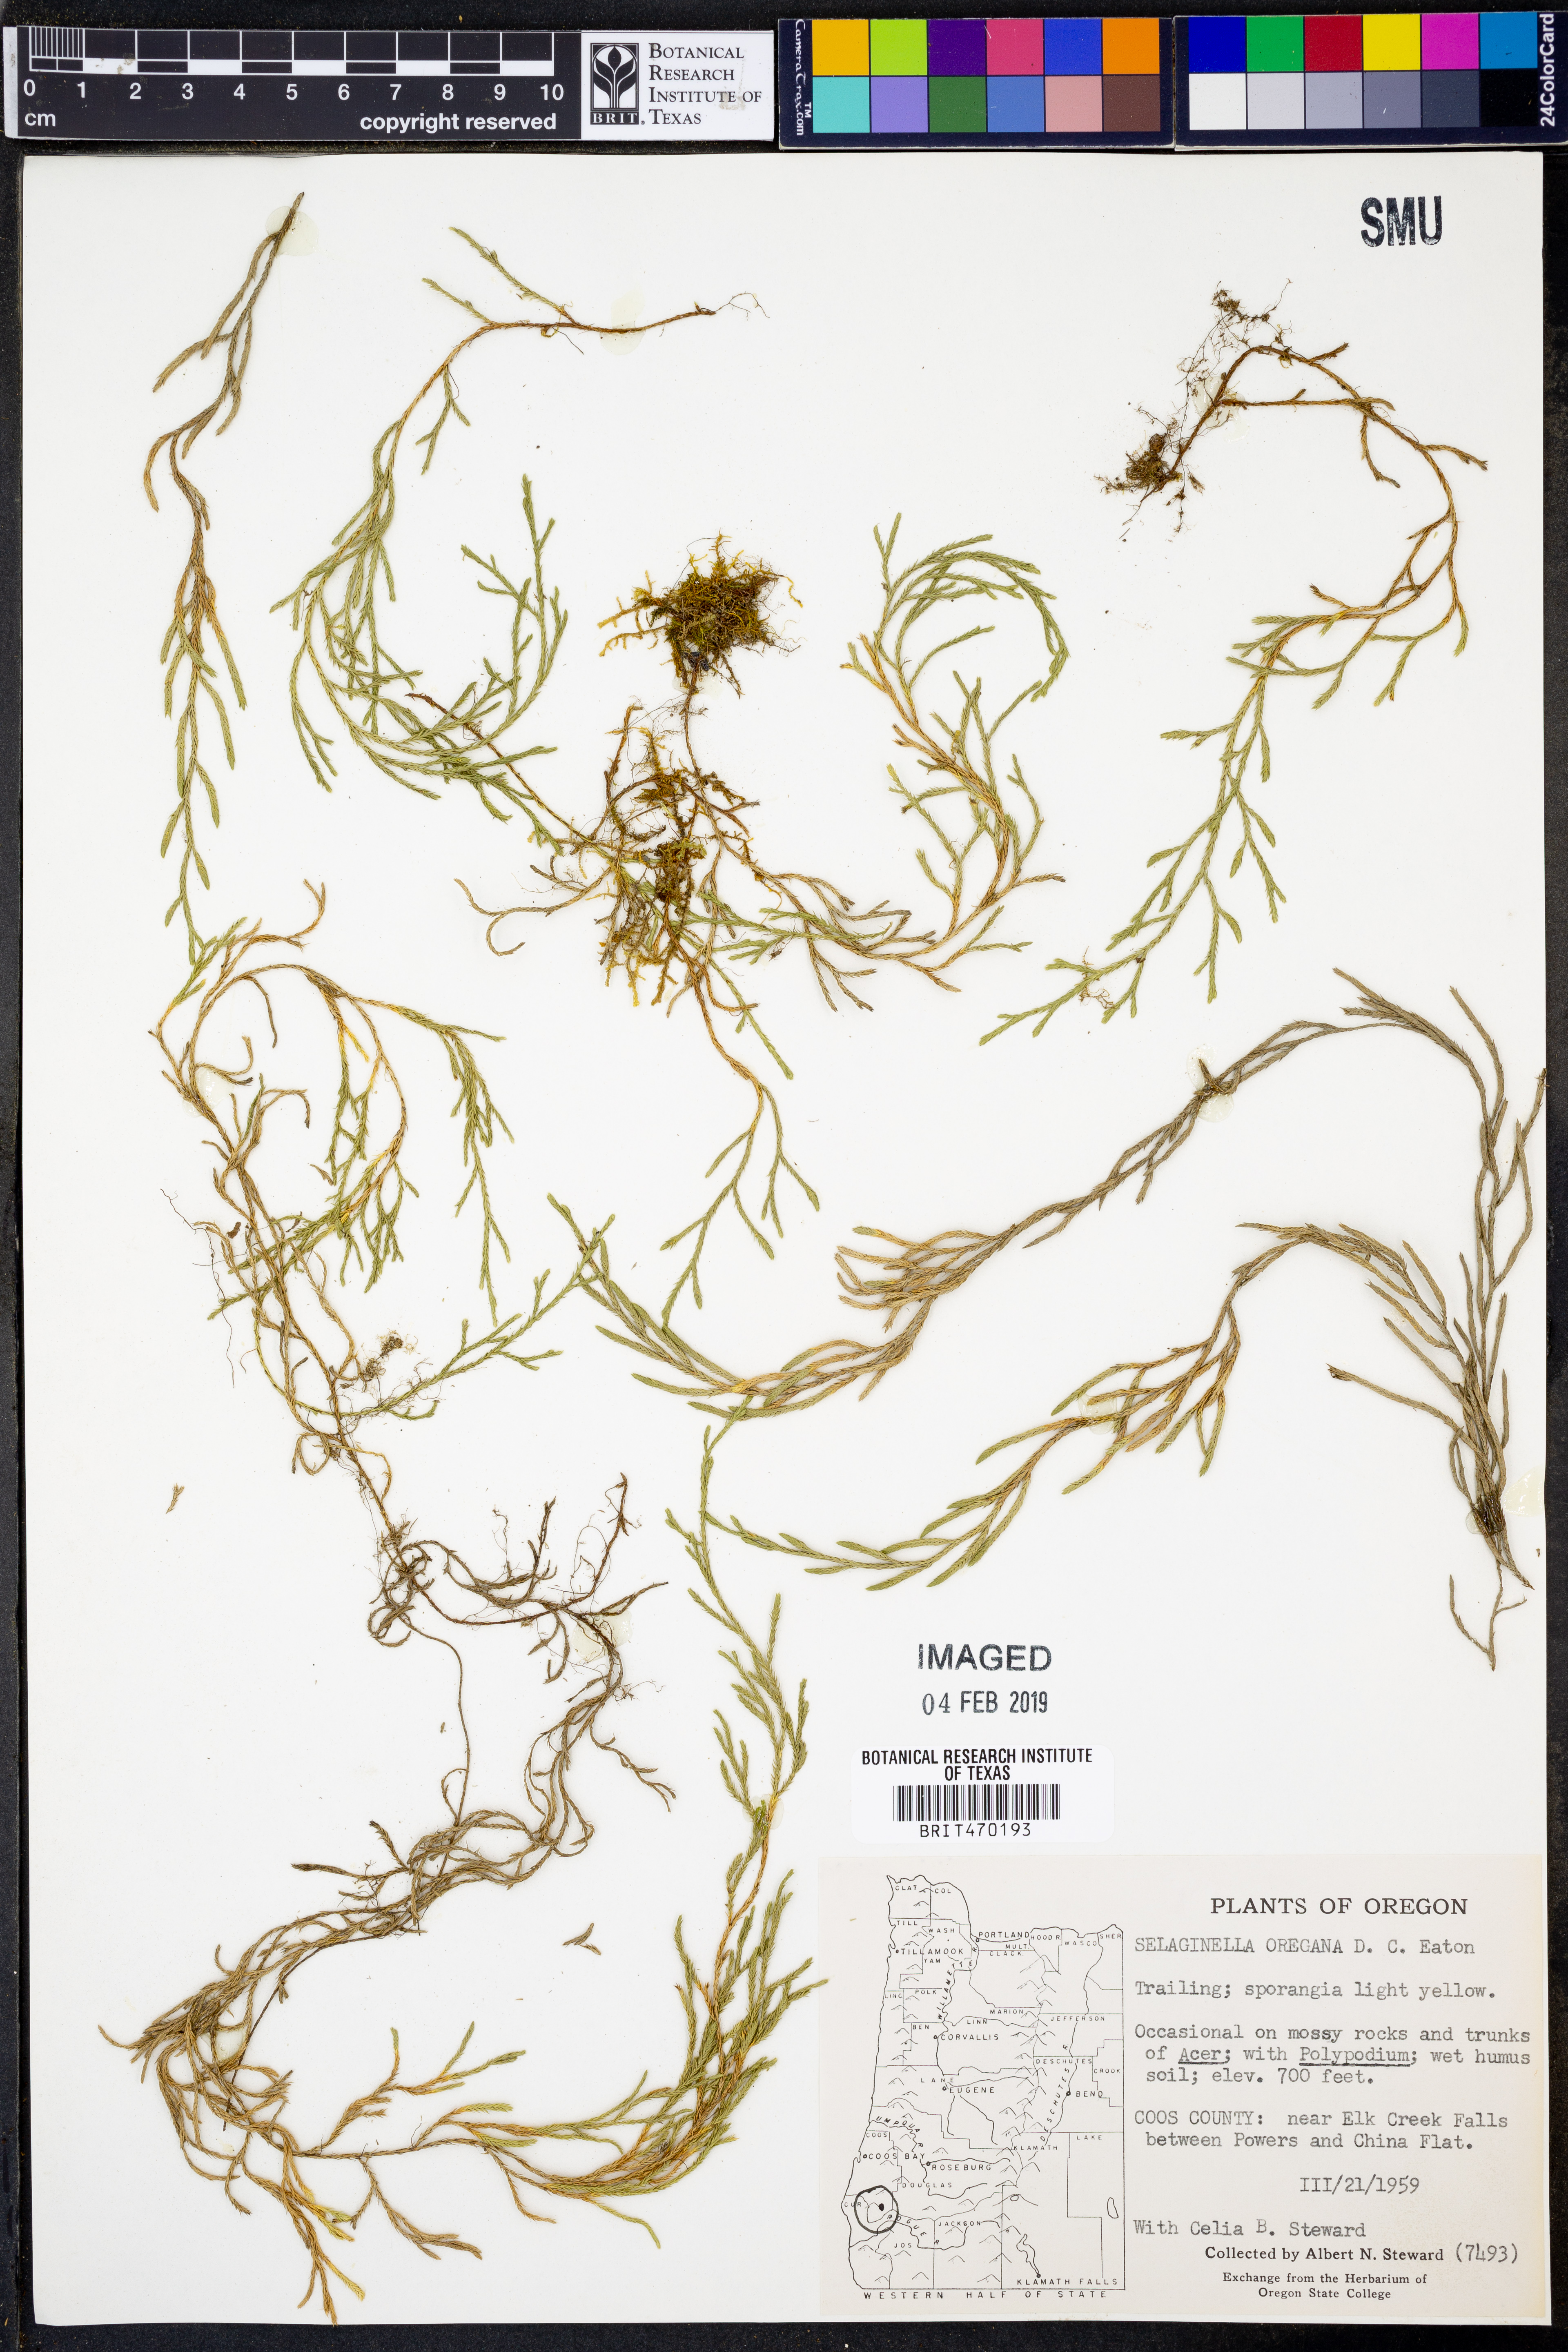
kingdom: Plantae
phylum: Tracheophyta
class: Lycopodiopsida
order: Selaginellales
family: Selaginellaceae
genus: Selaginella
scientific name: Selaginella oregana
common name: Oregon selaginella
